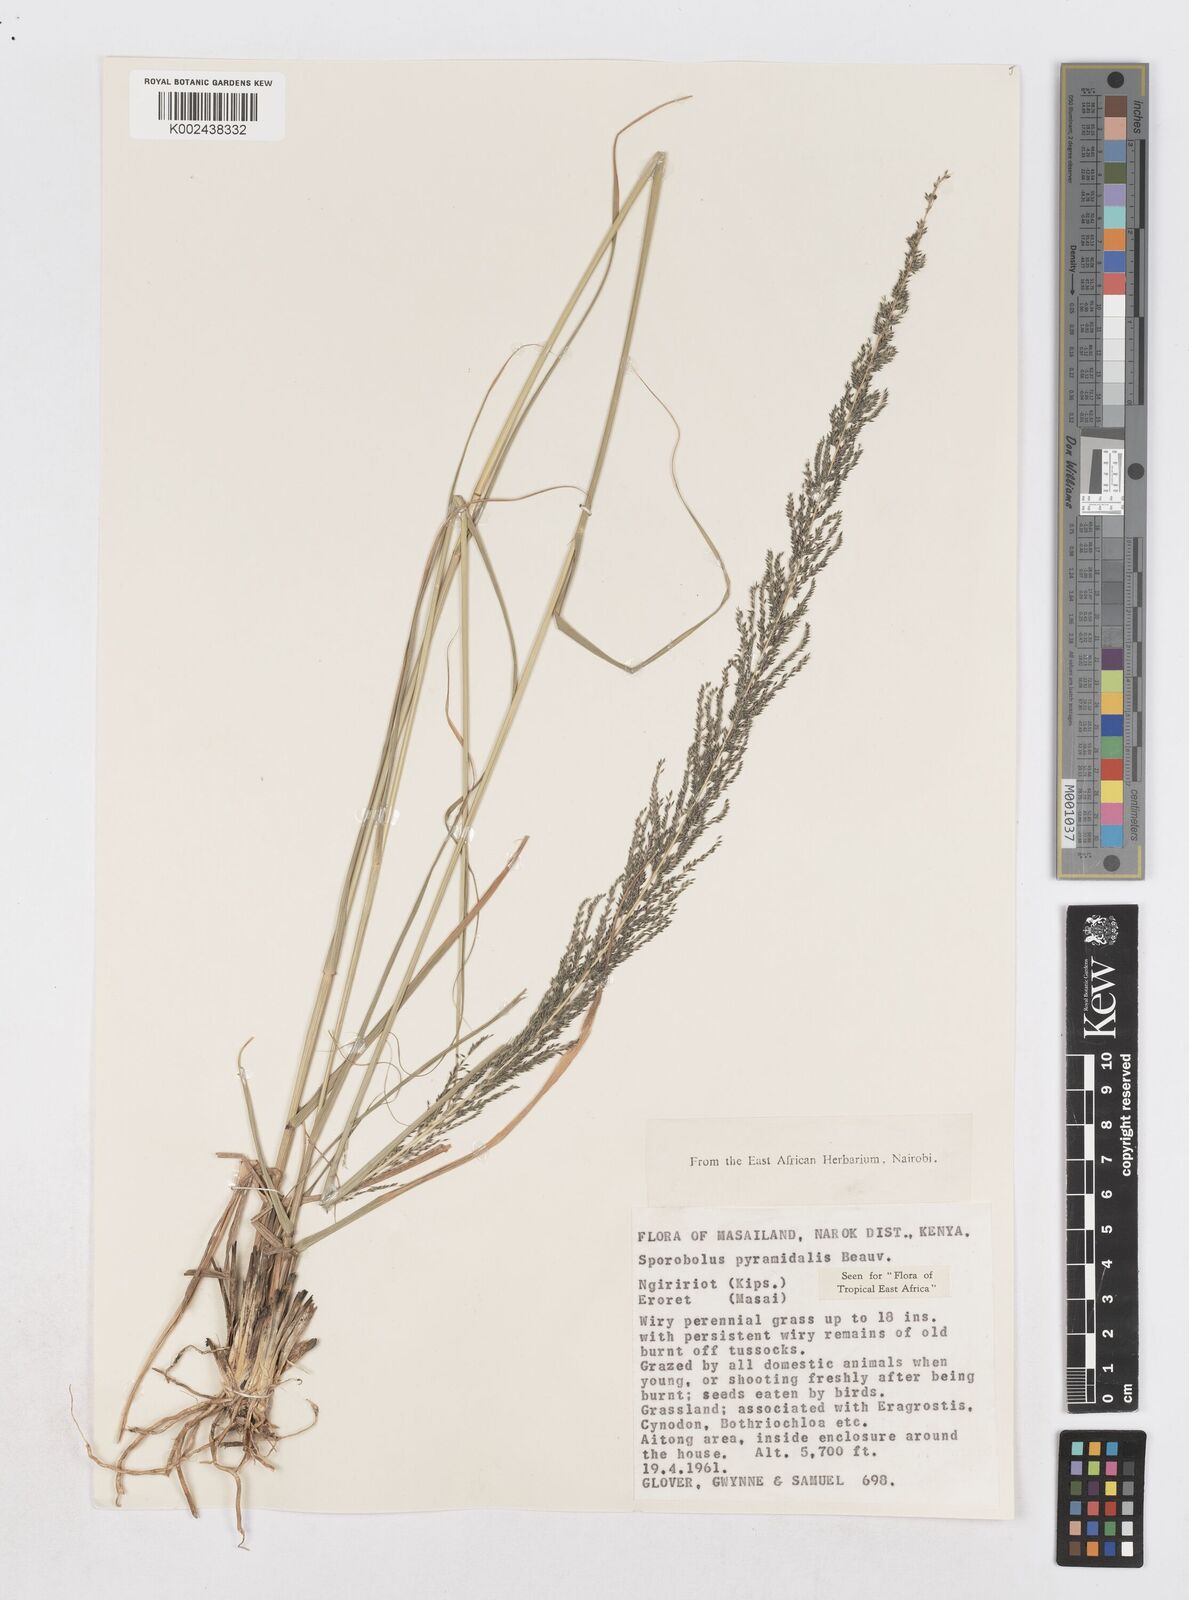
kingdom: Plantae
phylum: Tracheophyta
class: Liliopsida
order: Poales
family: Poaceae
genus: Sporobolus
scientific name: Sporobolus pyramidalis
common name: West indian dropseed
